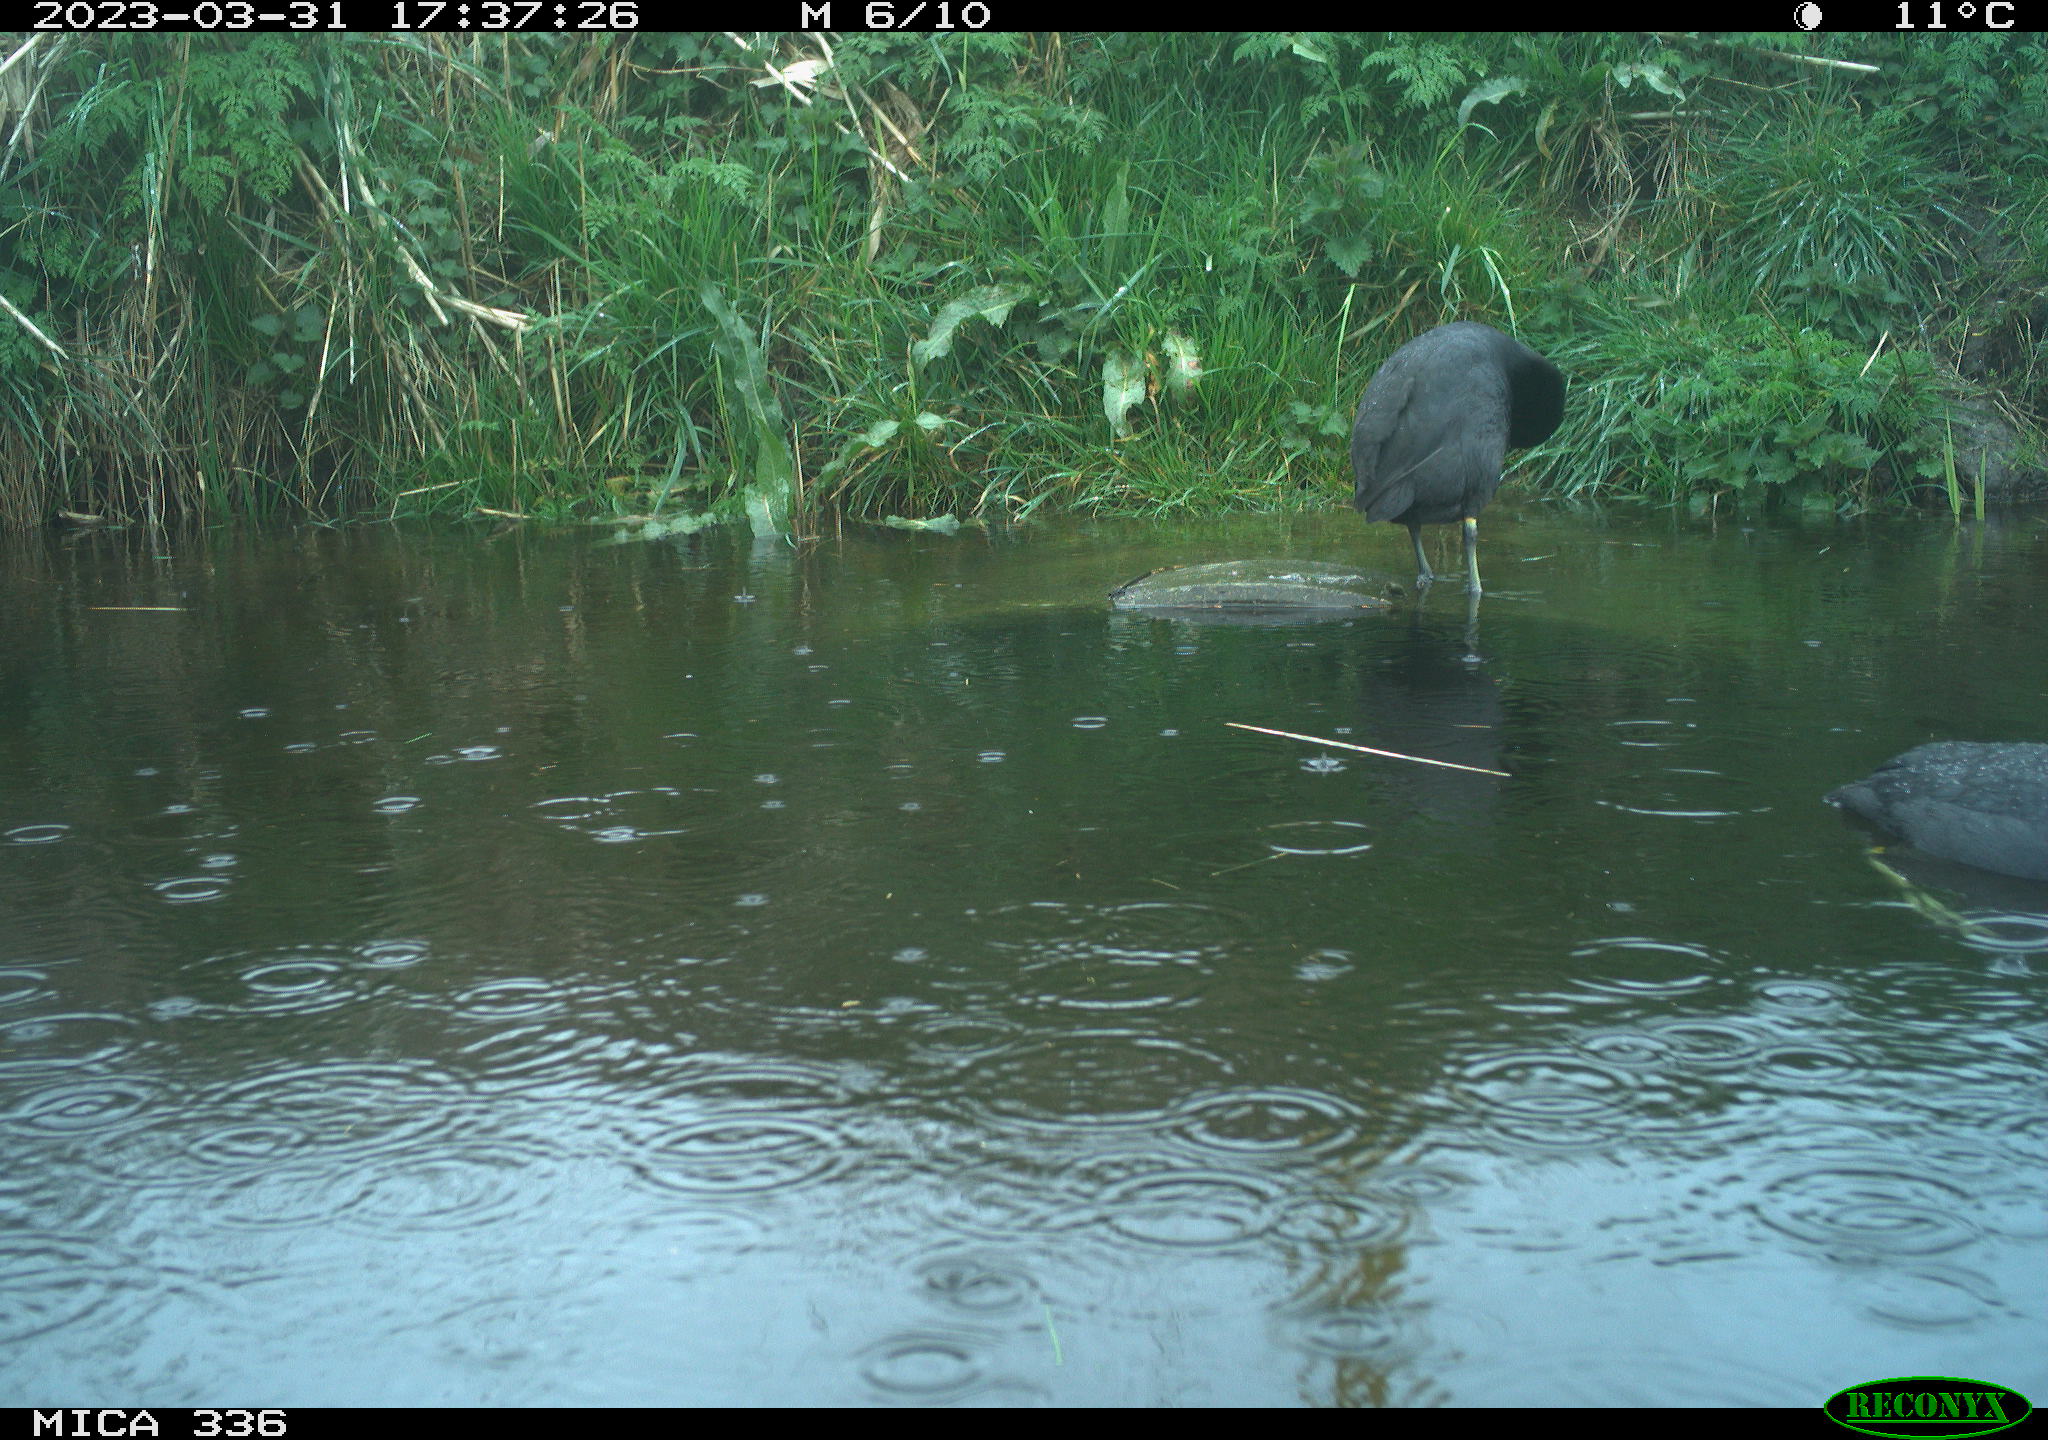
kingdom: Animalia
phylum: Chordata
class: Aves
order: Gruiformes
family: Rallidae
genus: Fulica
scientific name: Fulica atra
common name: Eurasian coot
